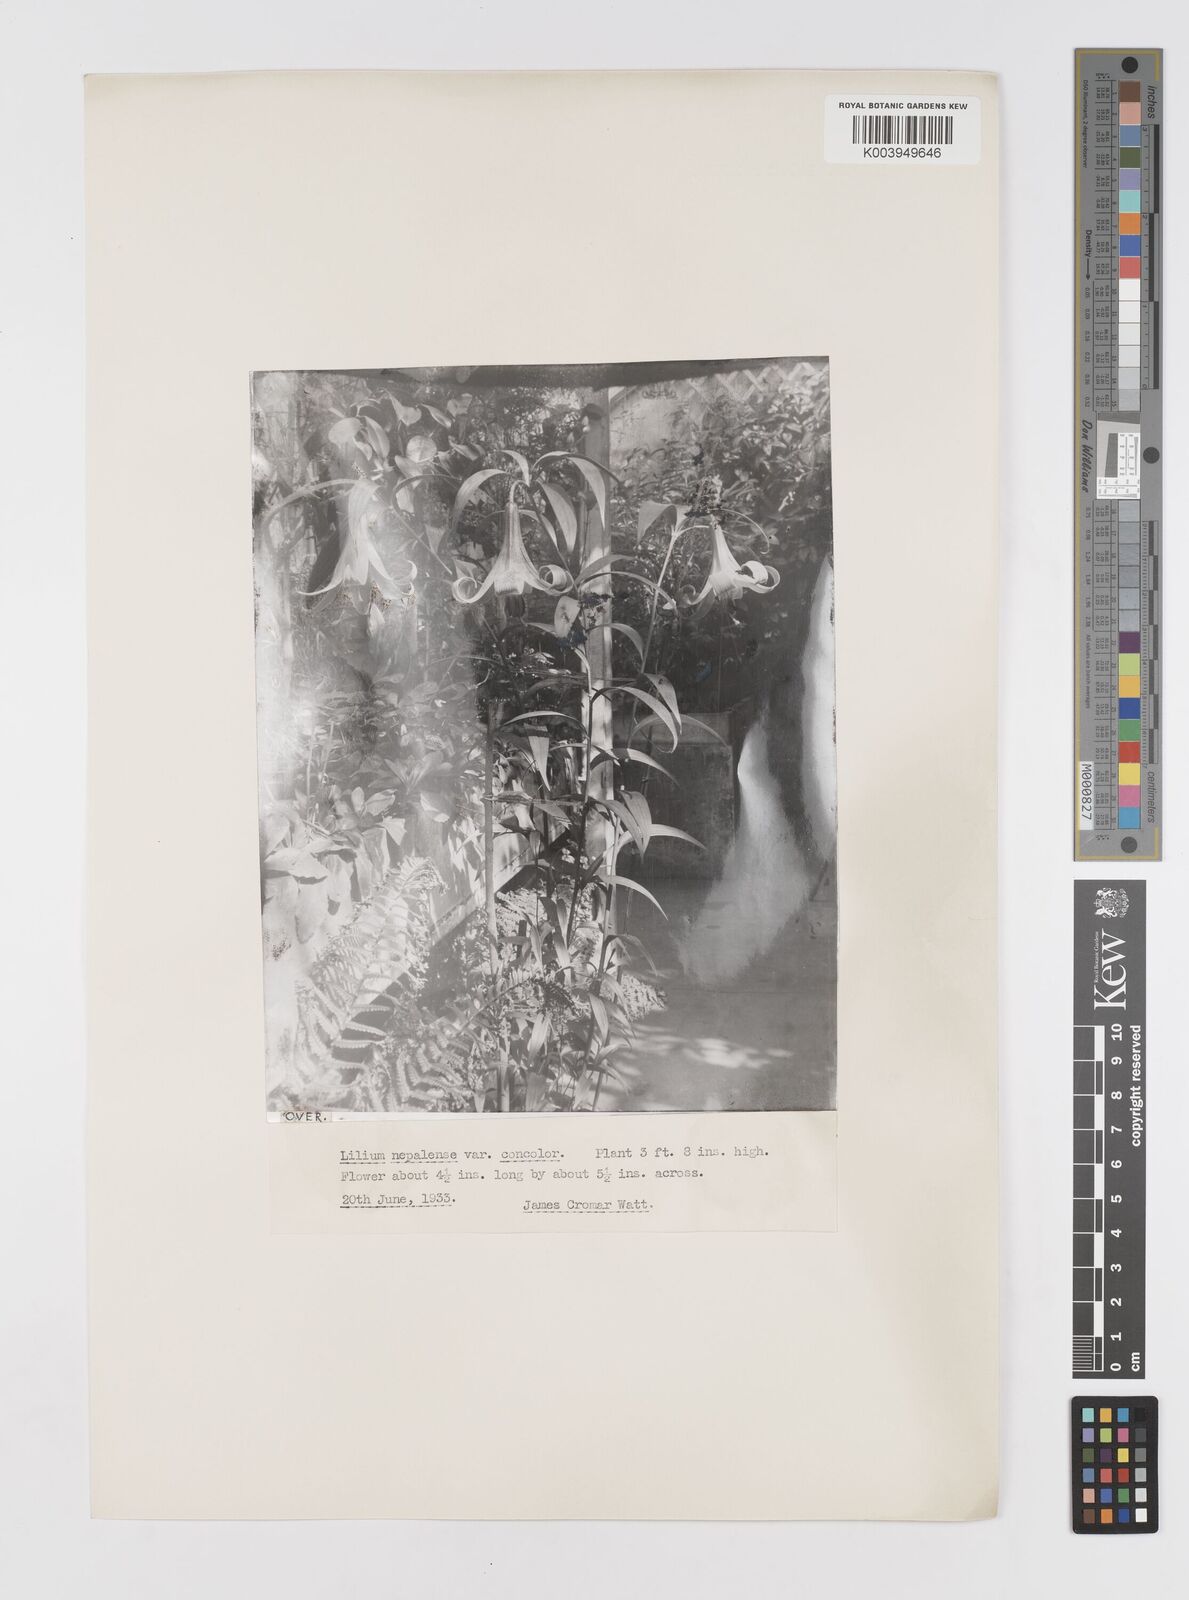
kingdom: Plantae
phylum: Tracheophyta
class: Liliopsida
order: Liliales
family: Liliaceae
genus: Lilium
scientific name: Lilium nepalense
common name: Nepal lily
